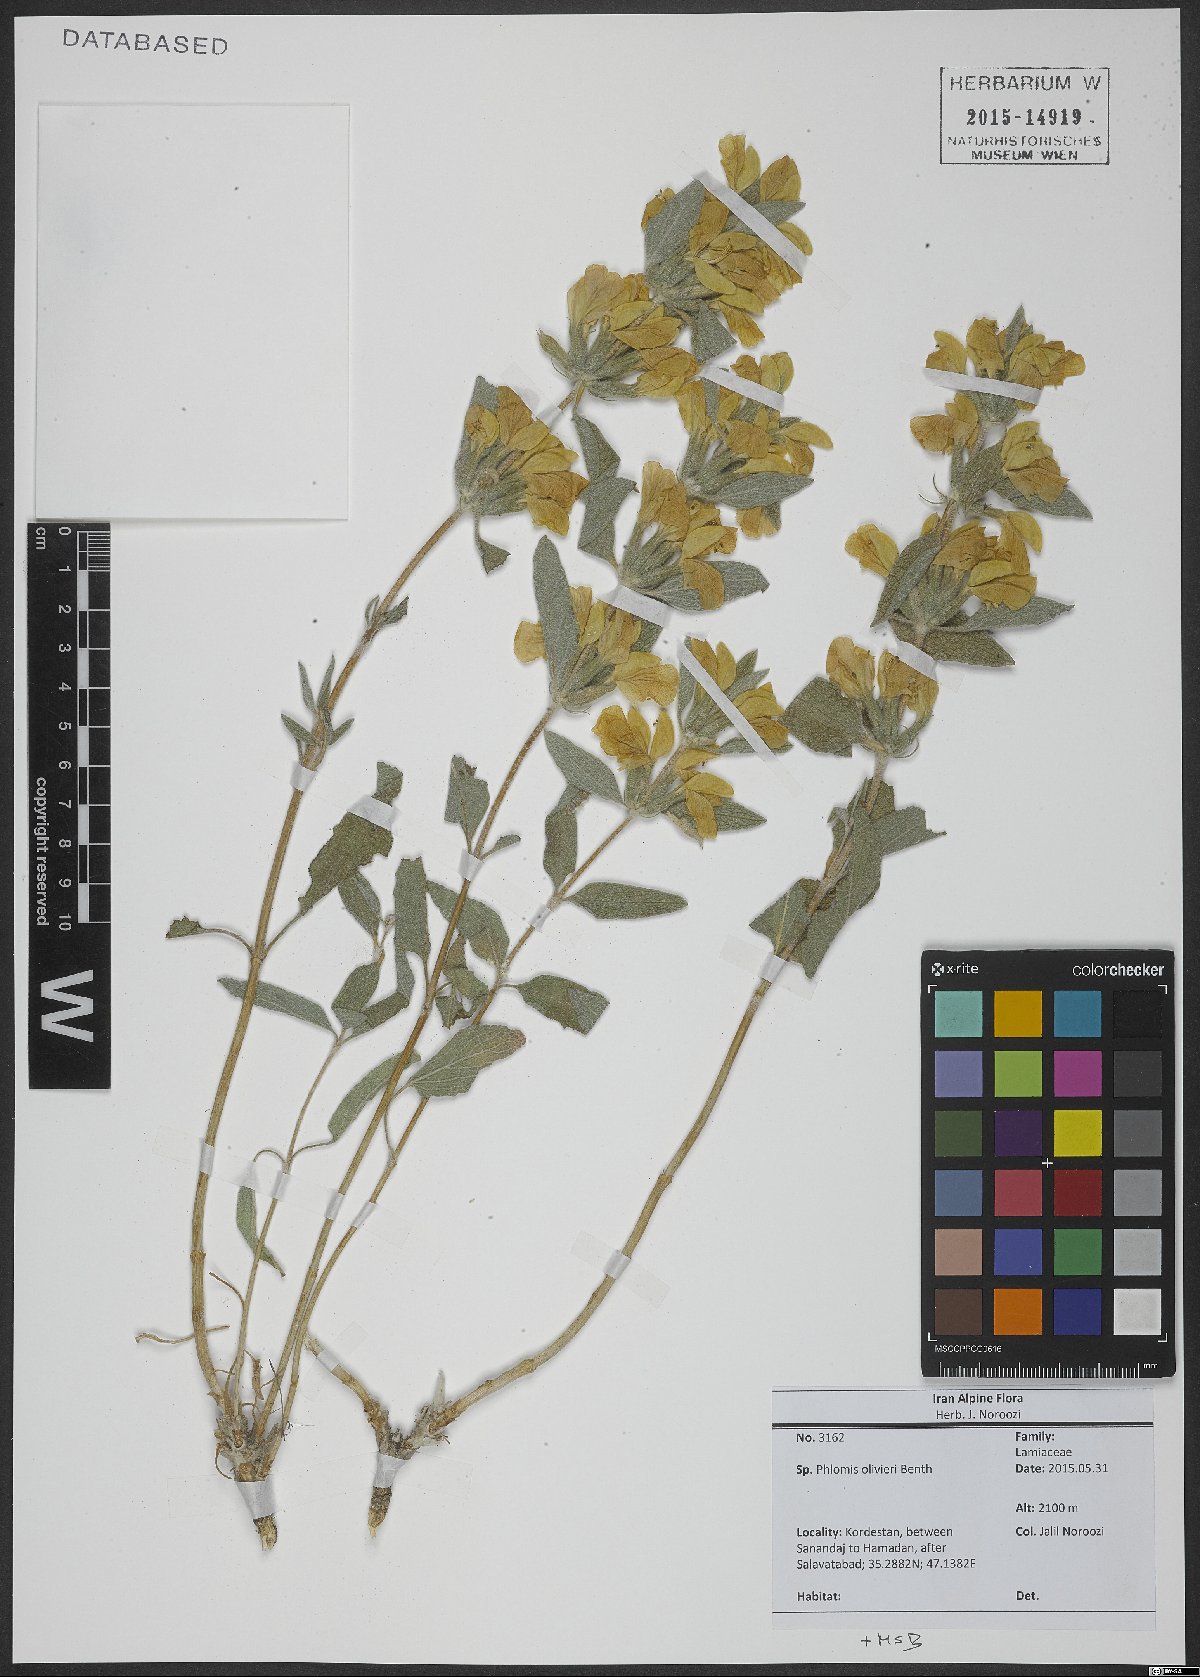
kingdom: Plantae
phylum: Tracheophyta
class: Magnoliopsida
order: Lamiales
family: Lamiaceae
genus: Phlomis
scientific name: Phlomis olivieri
